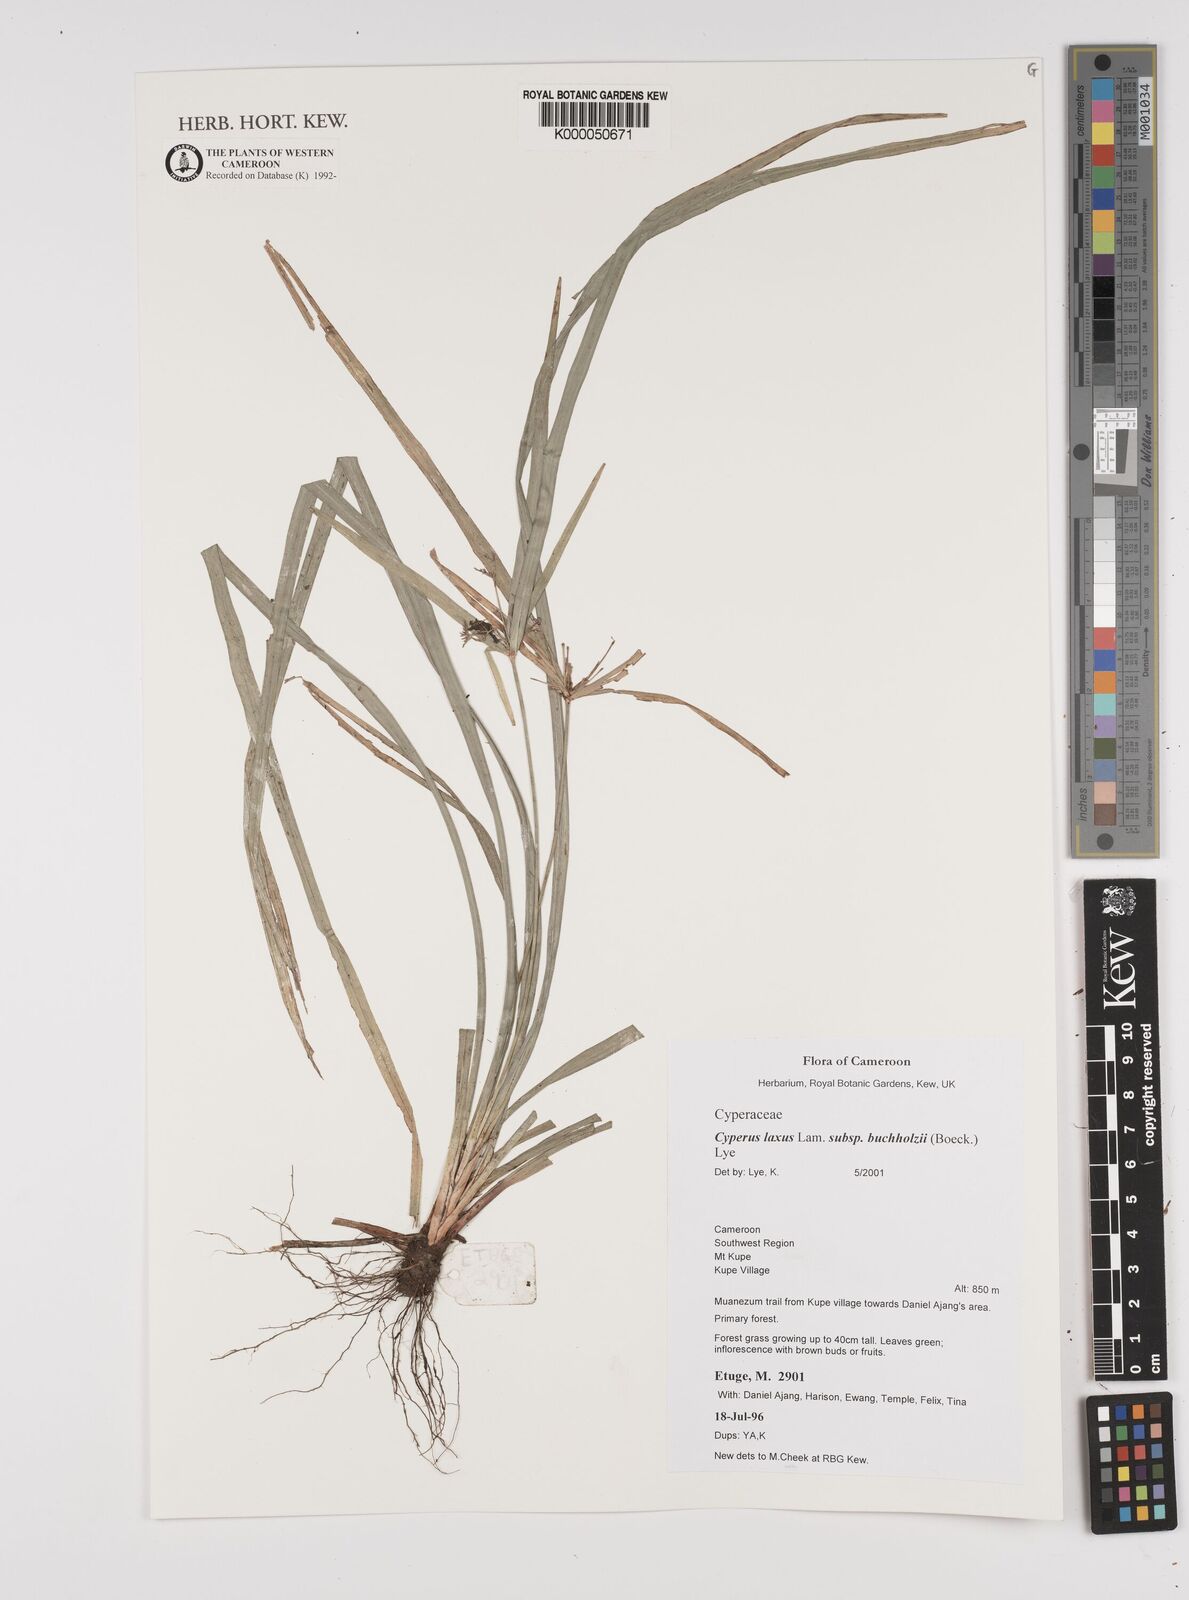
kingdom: Plantae
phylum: Tracheophyta
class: Liliopsida
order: Poales
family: Cyperaceae
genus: Cyperus
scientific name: Cyperus buchholzii
